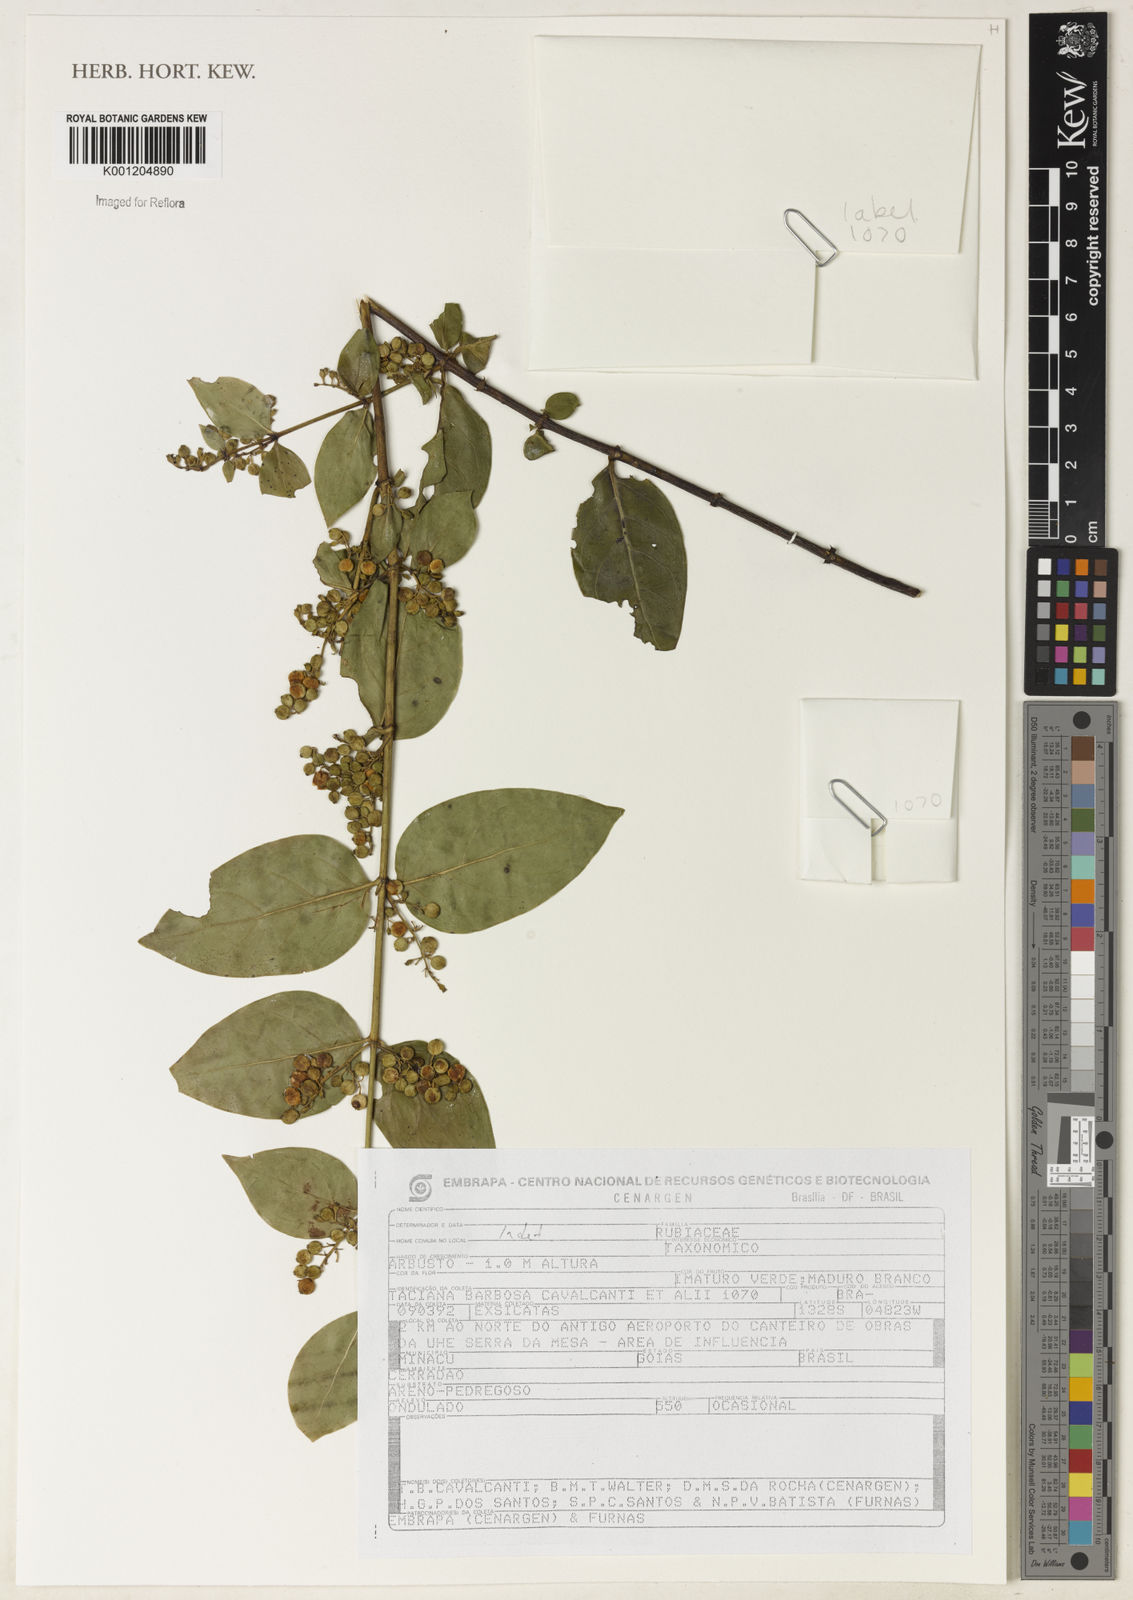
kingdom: Plantae
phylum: Tracheophyta
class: Magnoliopsida
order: Gentianales
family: Rubiaceae
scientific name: Rubiaceae
